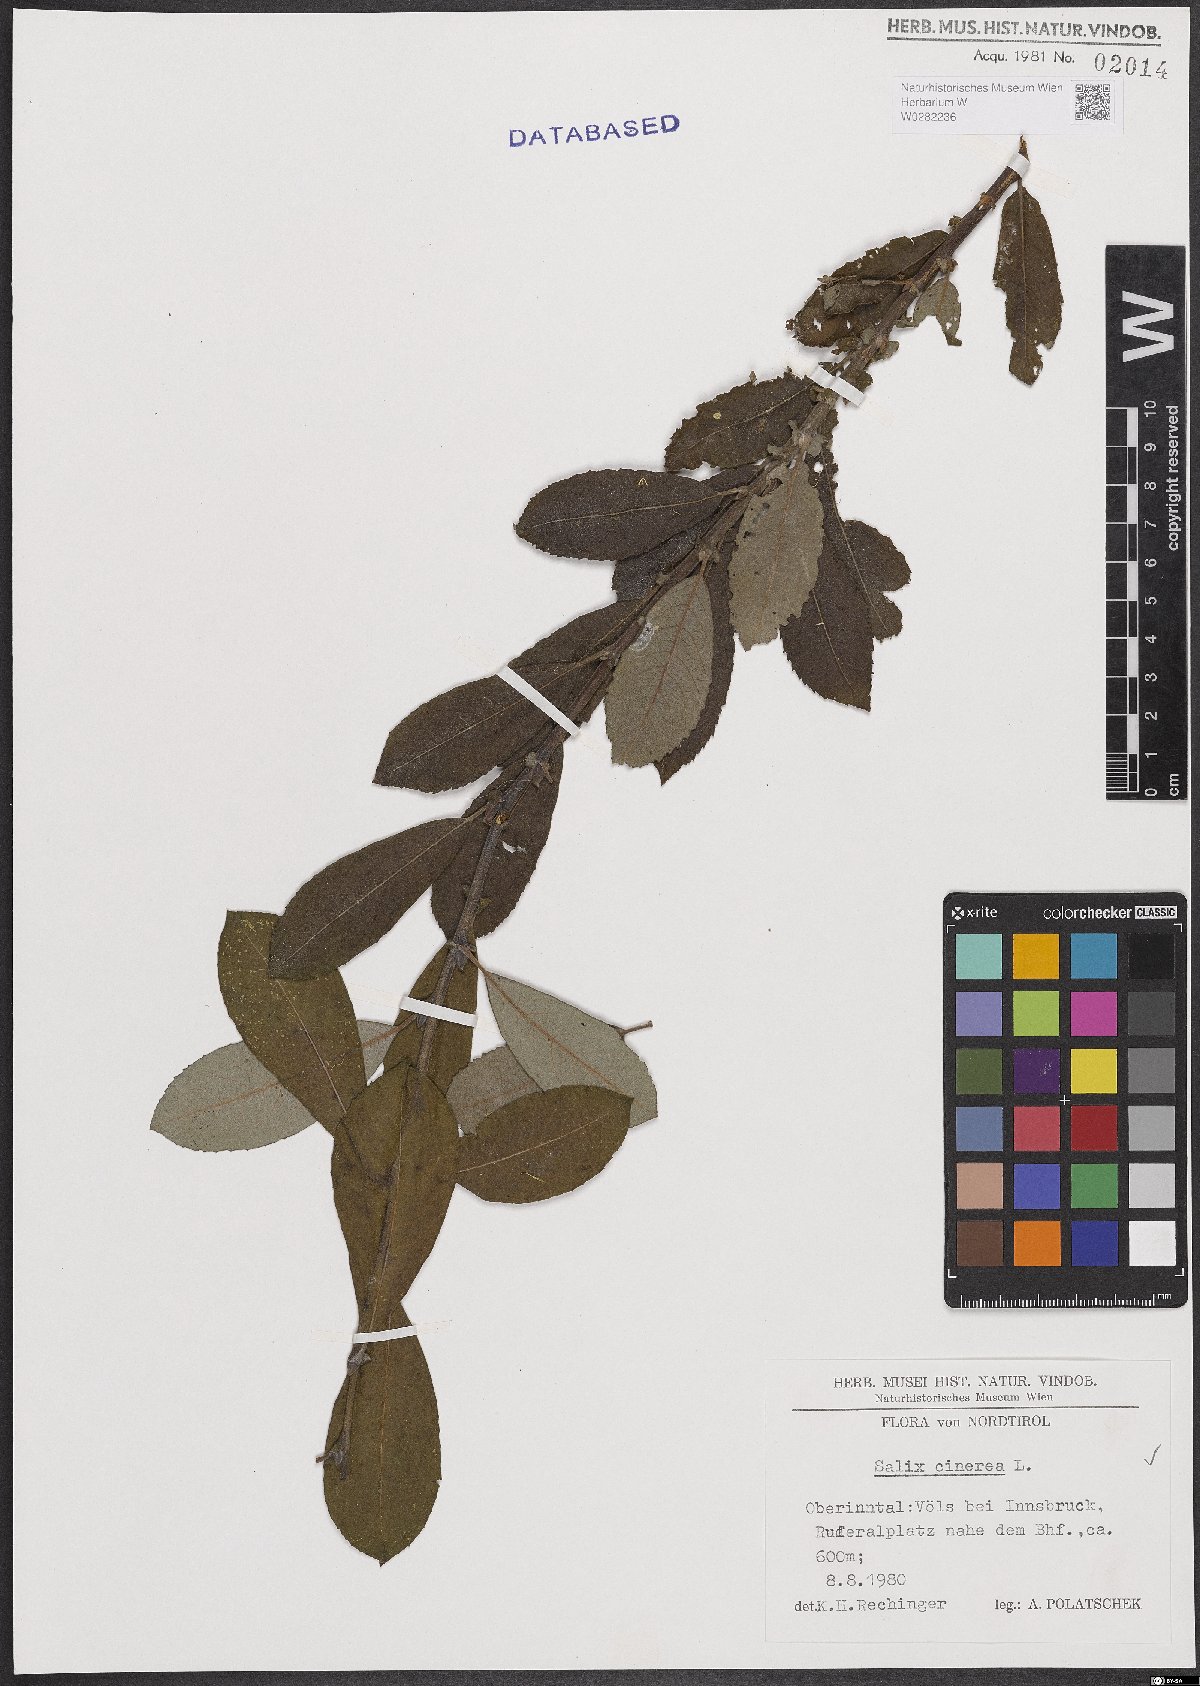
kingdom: Plantae
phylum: Tracheophyta
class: Magnoliopsida
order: Malpighiales
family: Salicaceae
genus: Salix
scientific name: Salix cinerea
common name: Common sallow
